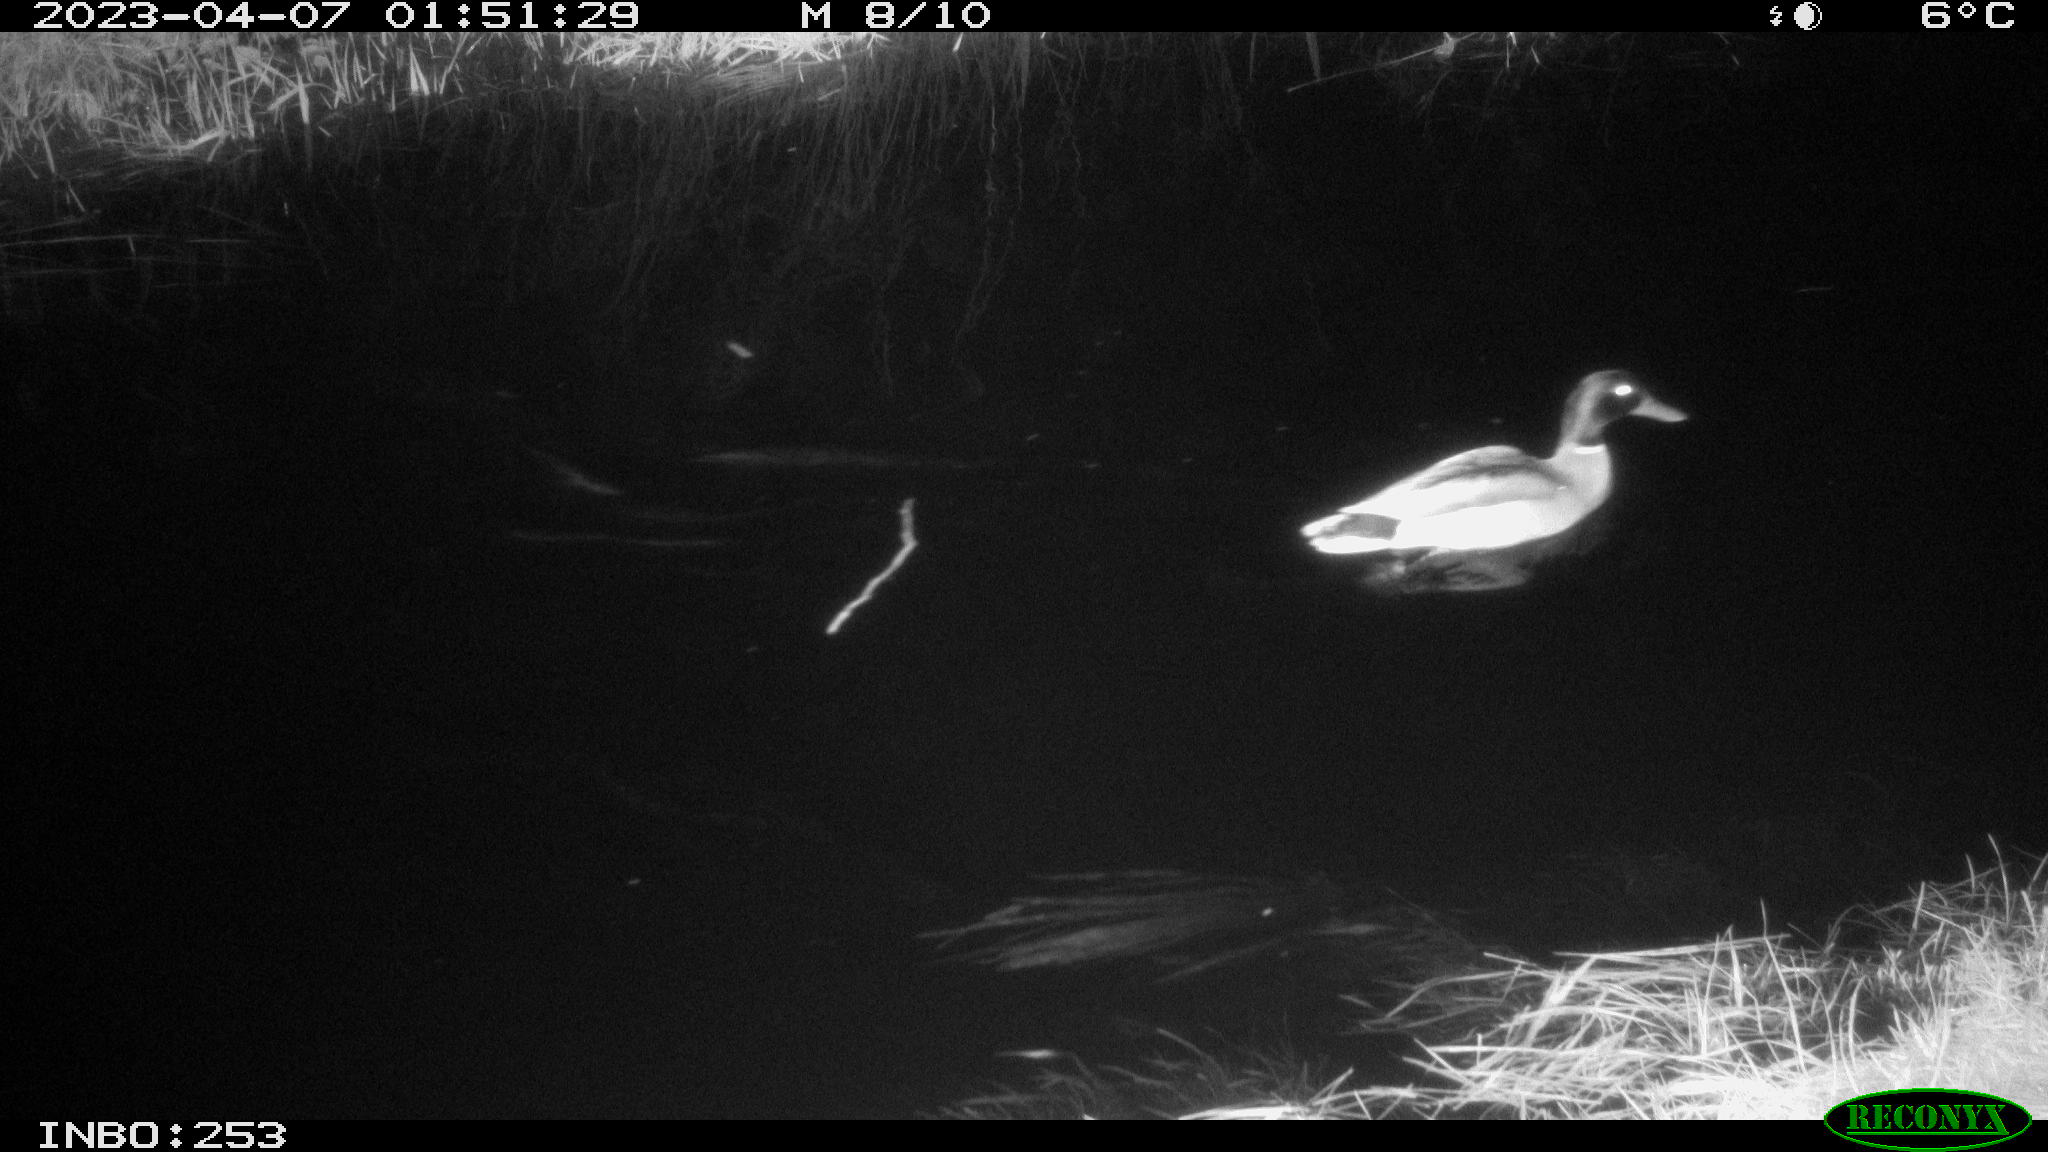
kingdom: Animalia
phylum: Chordata
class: Aves
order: Anseriformes
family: Anatidae
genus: Anas
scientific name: Anas
